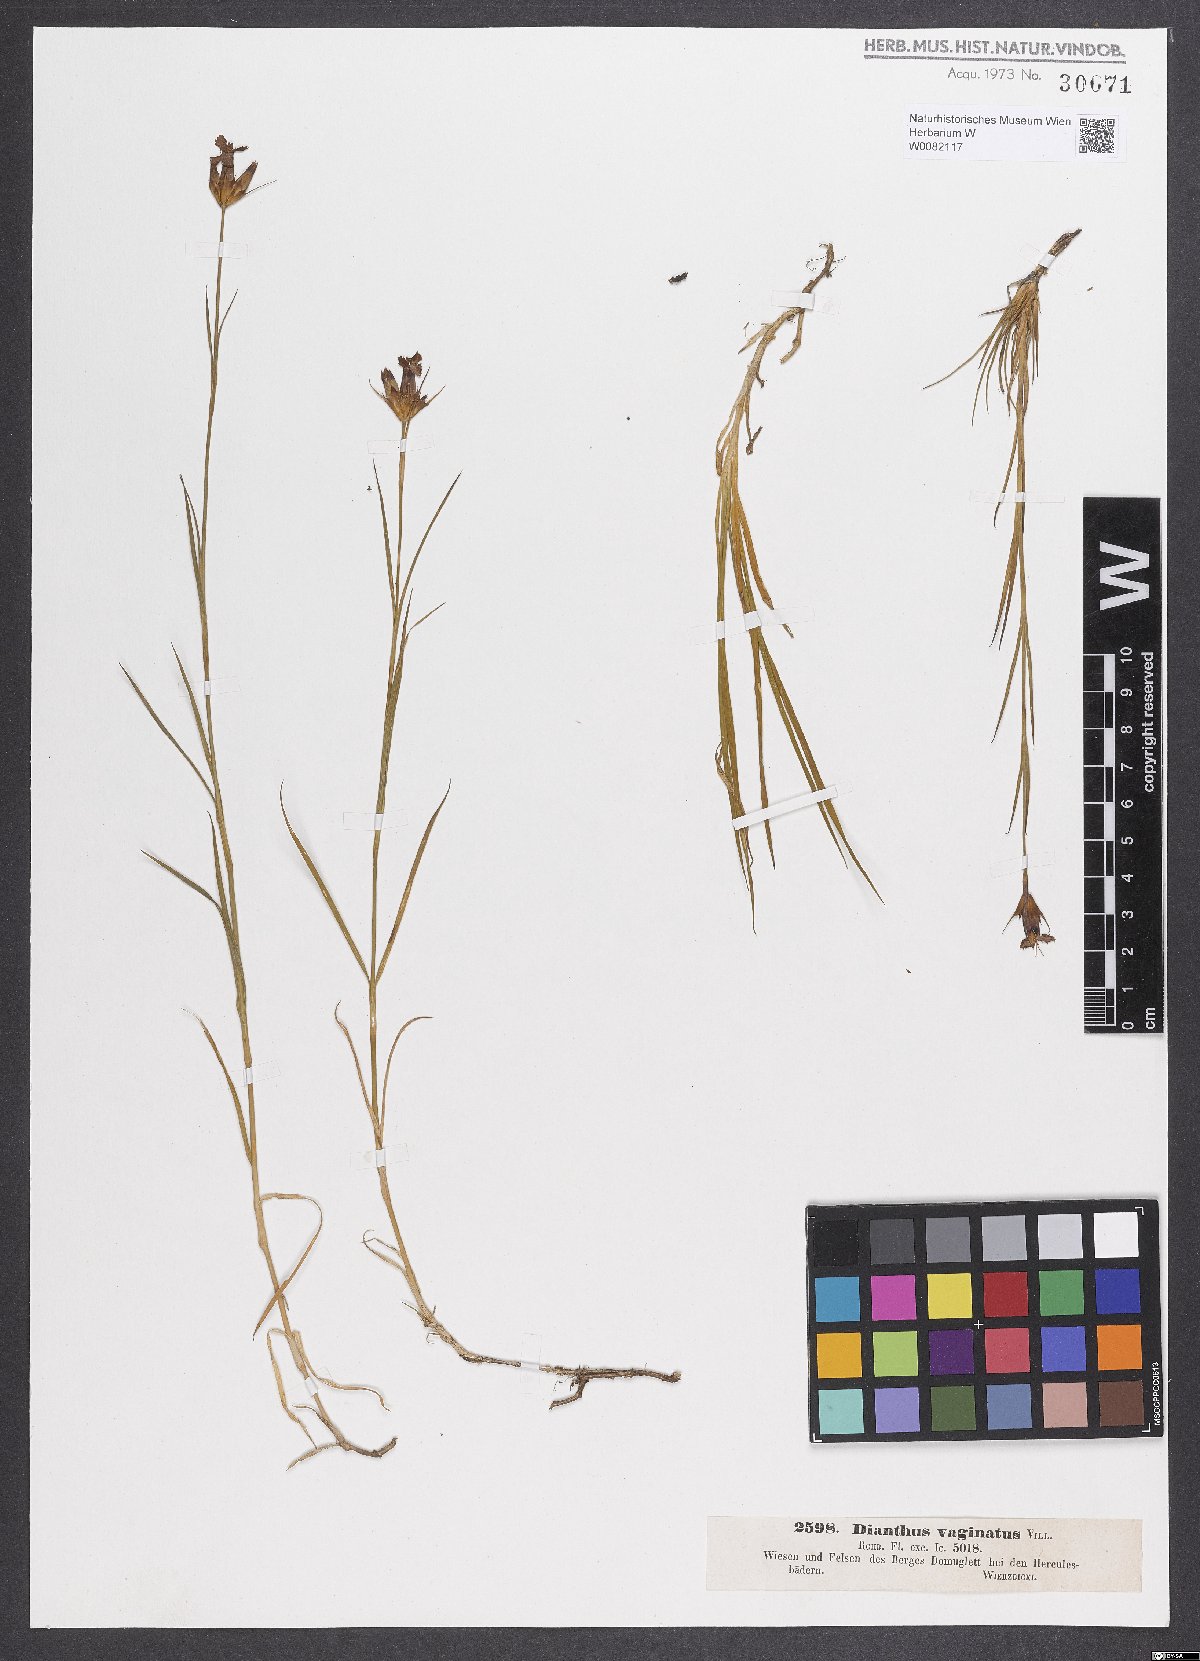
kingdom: Plantae
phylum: Tracheophyta
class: Magnoliopsida
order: Caryophyllales
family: Caryophyllaceae
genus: Dianthus
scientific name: Dianthus carthusianorum
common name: Carthusian pink
